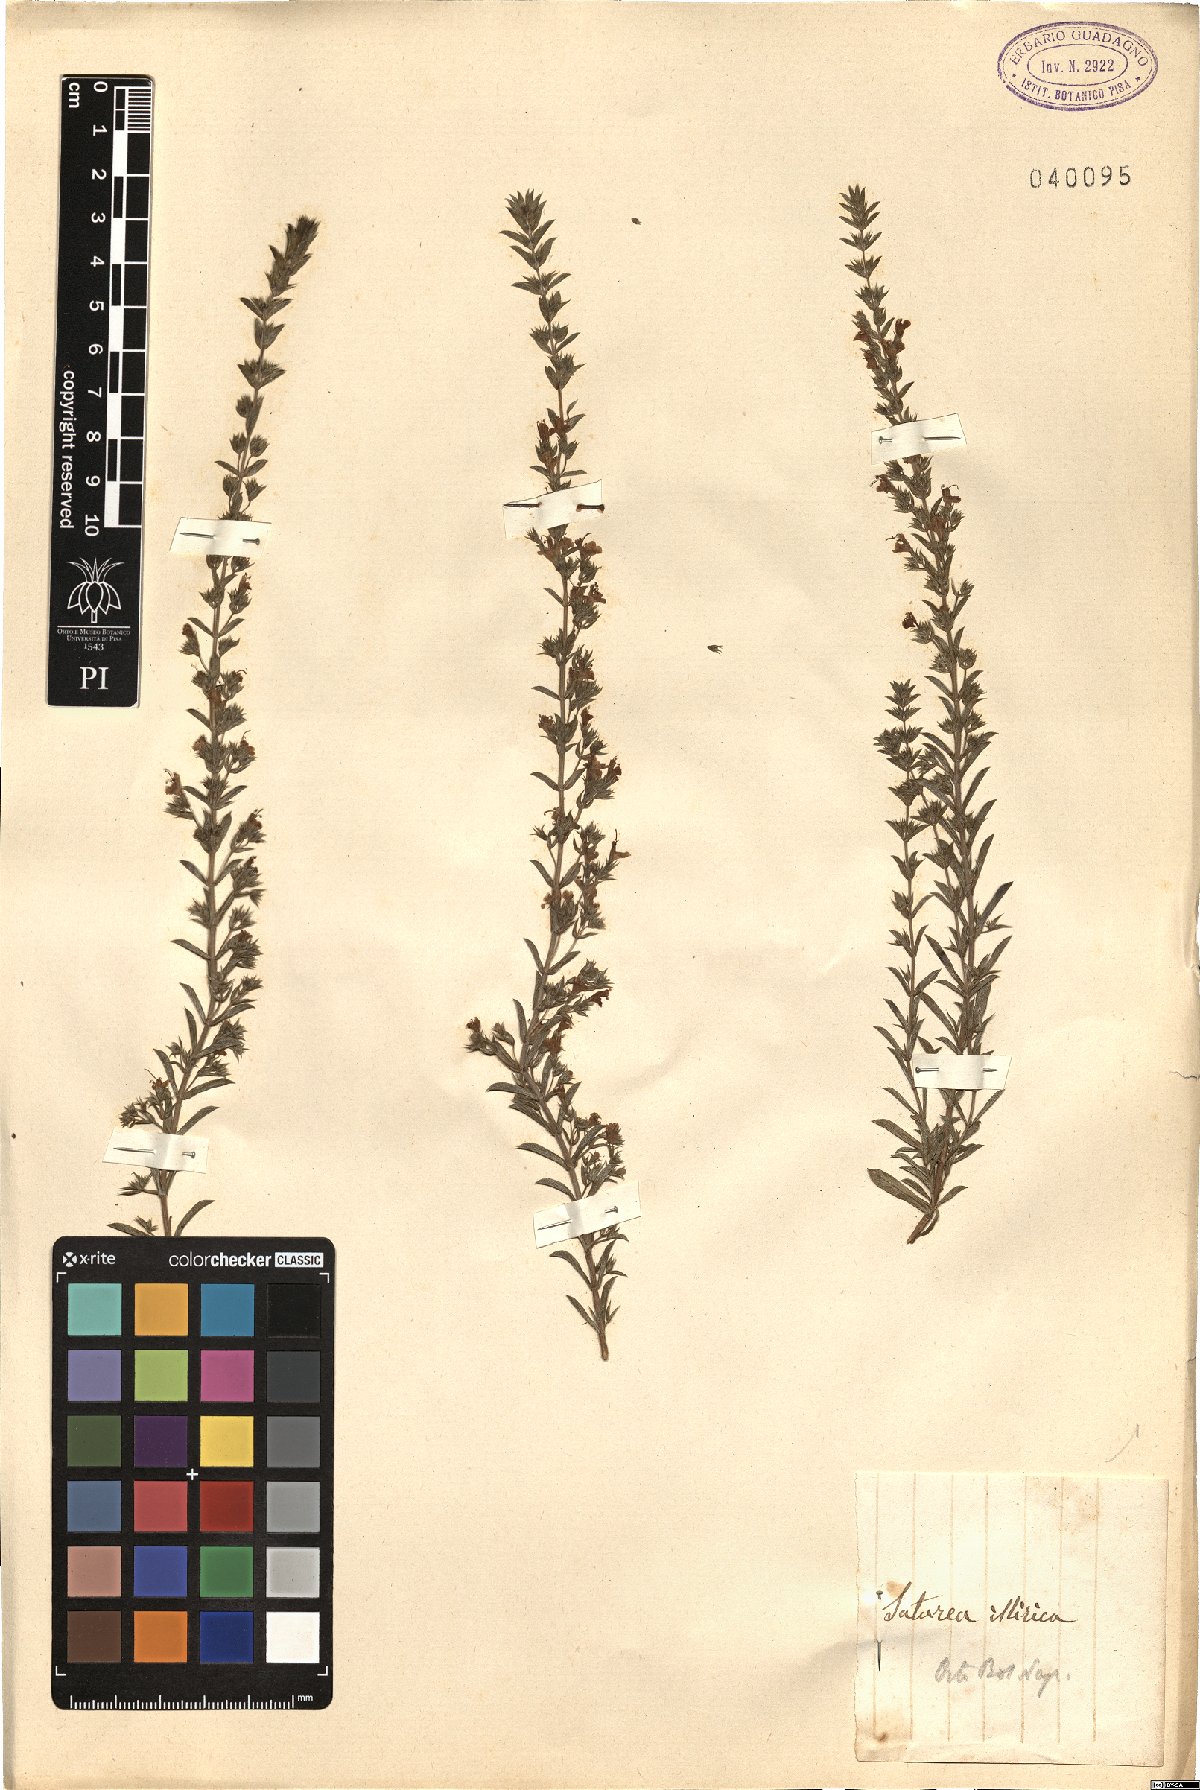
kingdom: Plantae
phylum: Tracheophyta
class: Magnoliopsida
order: Lamiales
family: Lamiaceae
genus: Satureja
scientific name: Satureja subspicata
